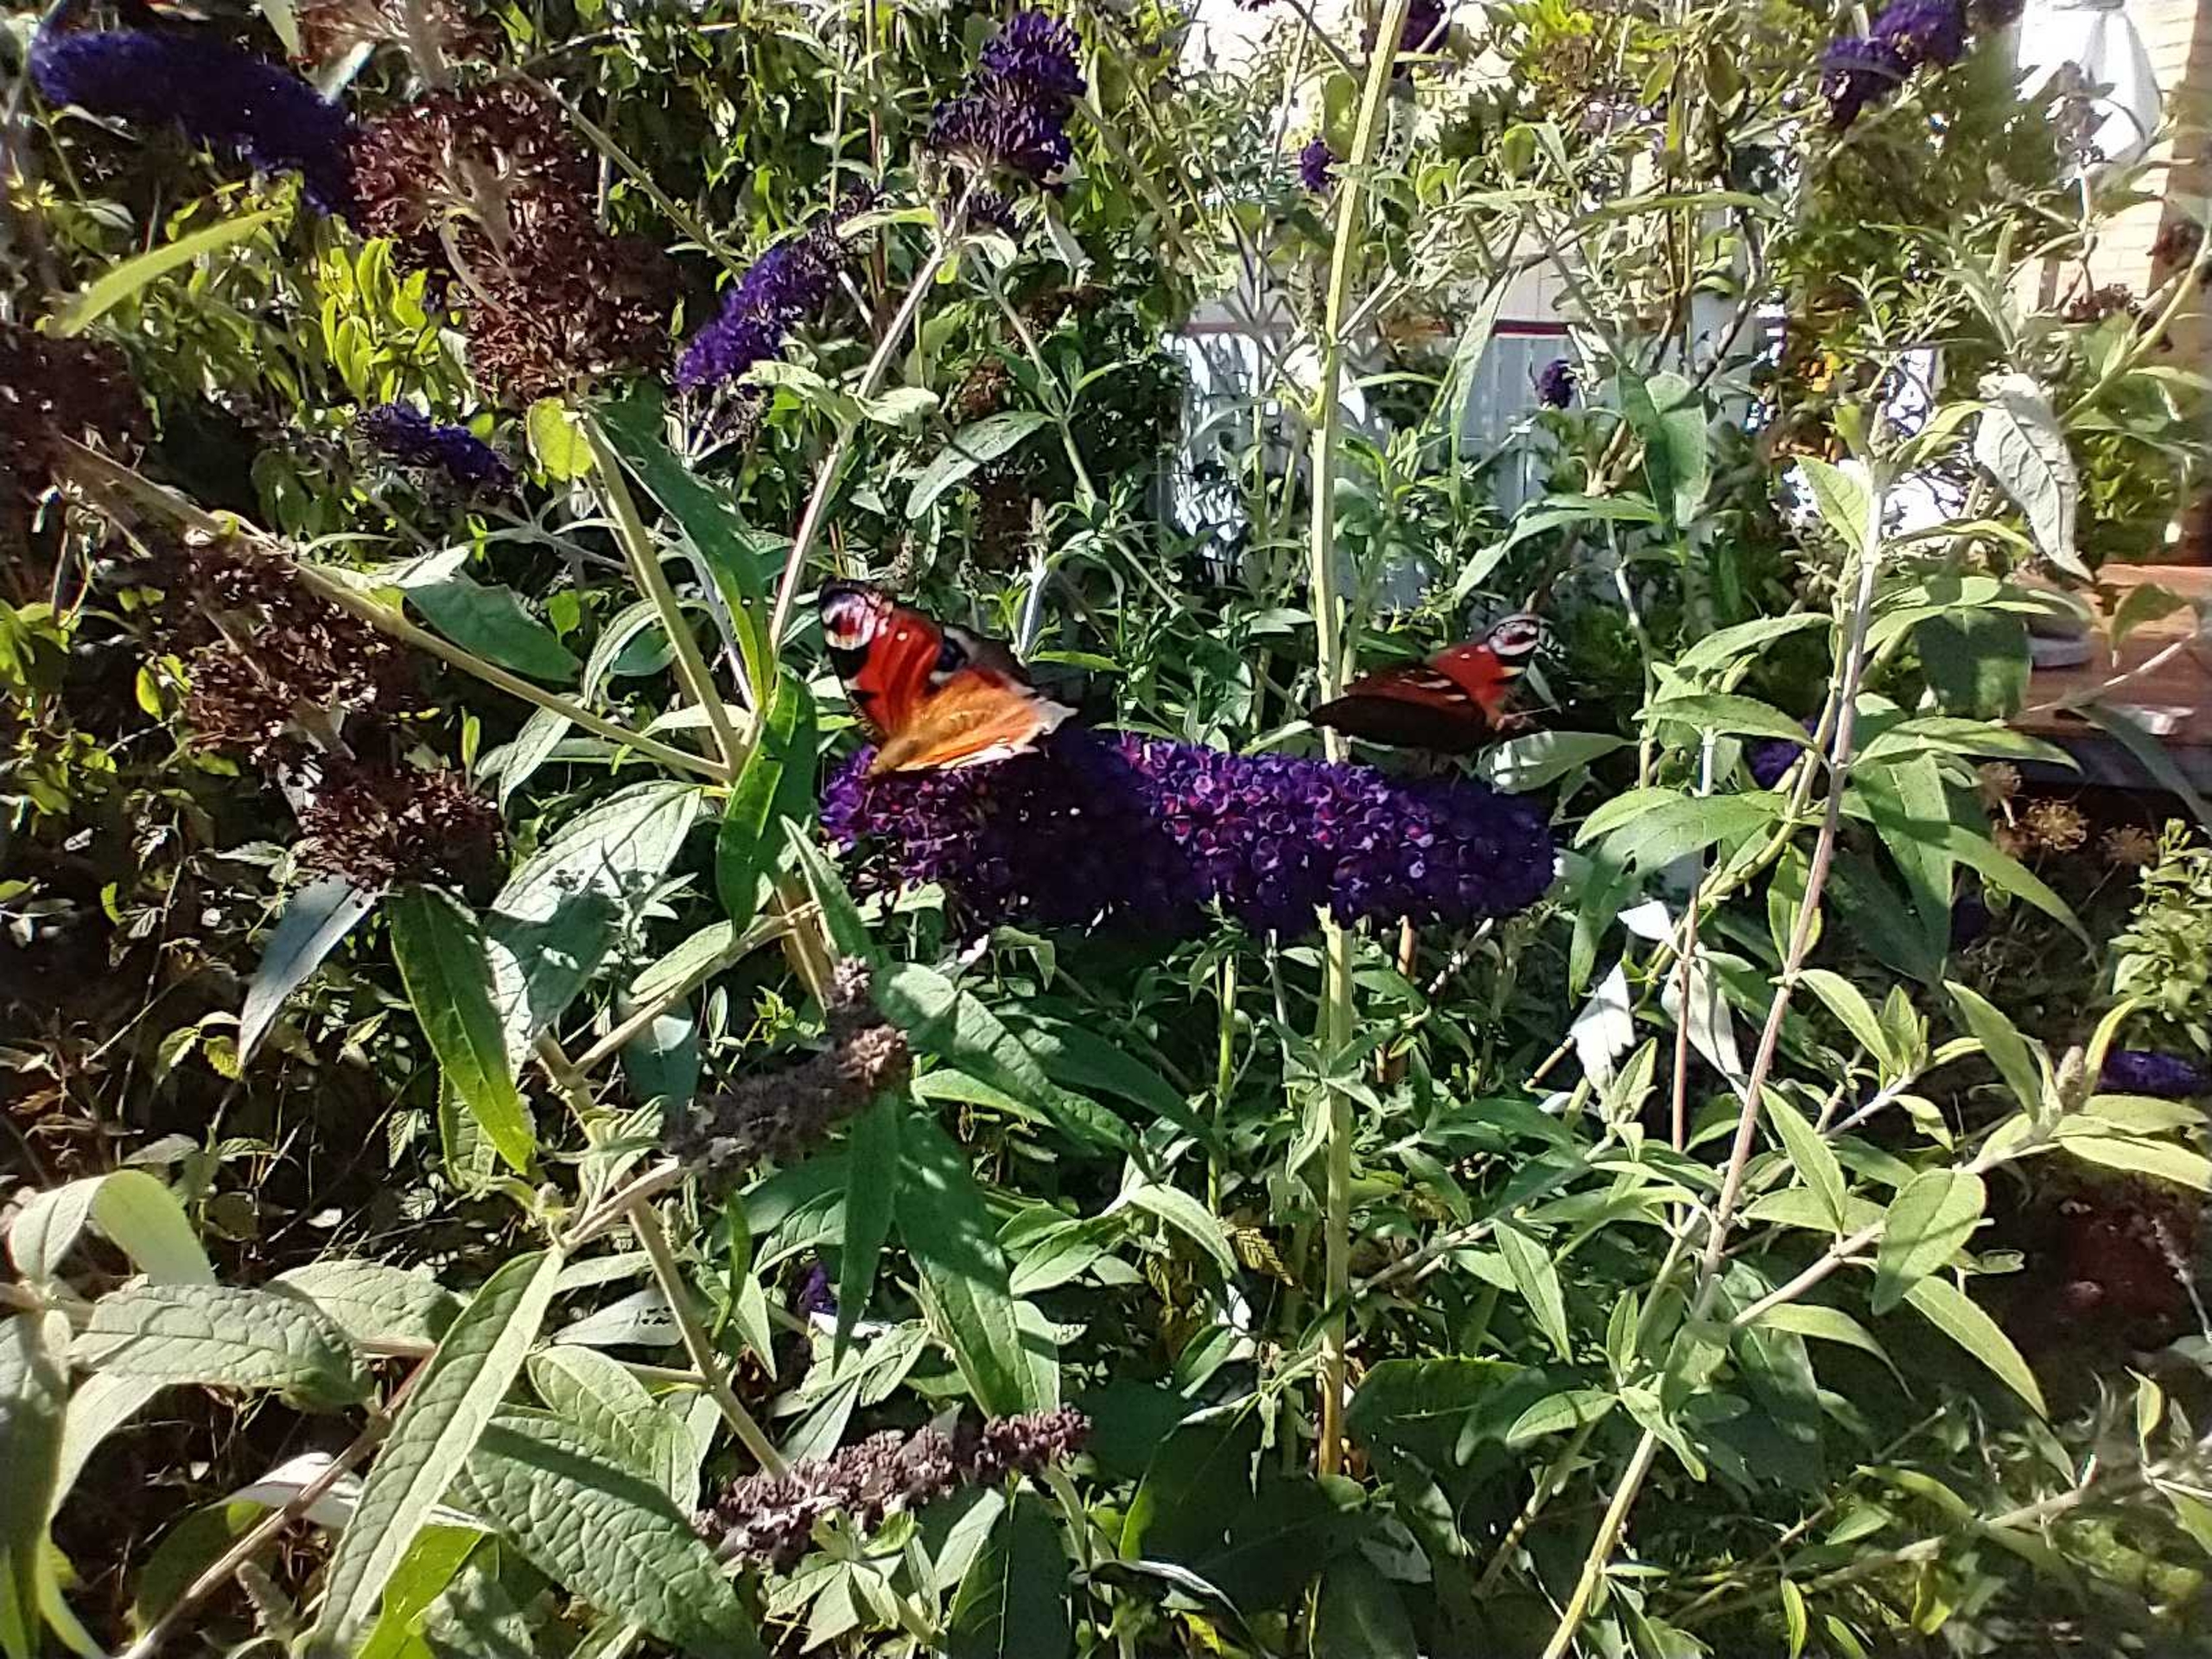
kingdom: Animalia
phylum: Arthropoda
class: Insecta
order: Lepidoptera
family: Nymphalidae
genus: Aglais
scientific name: Aglais io
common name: Dagpåfugleøje
